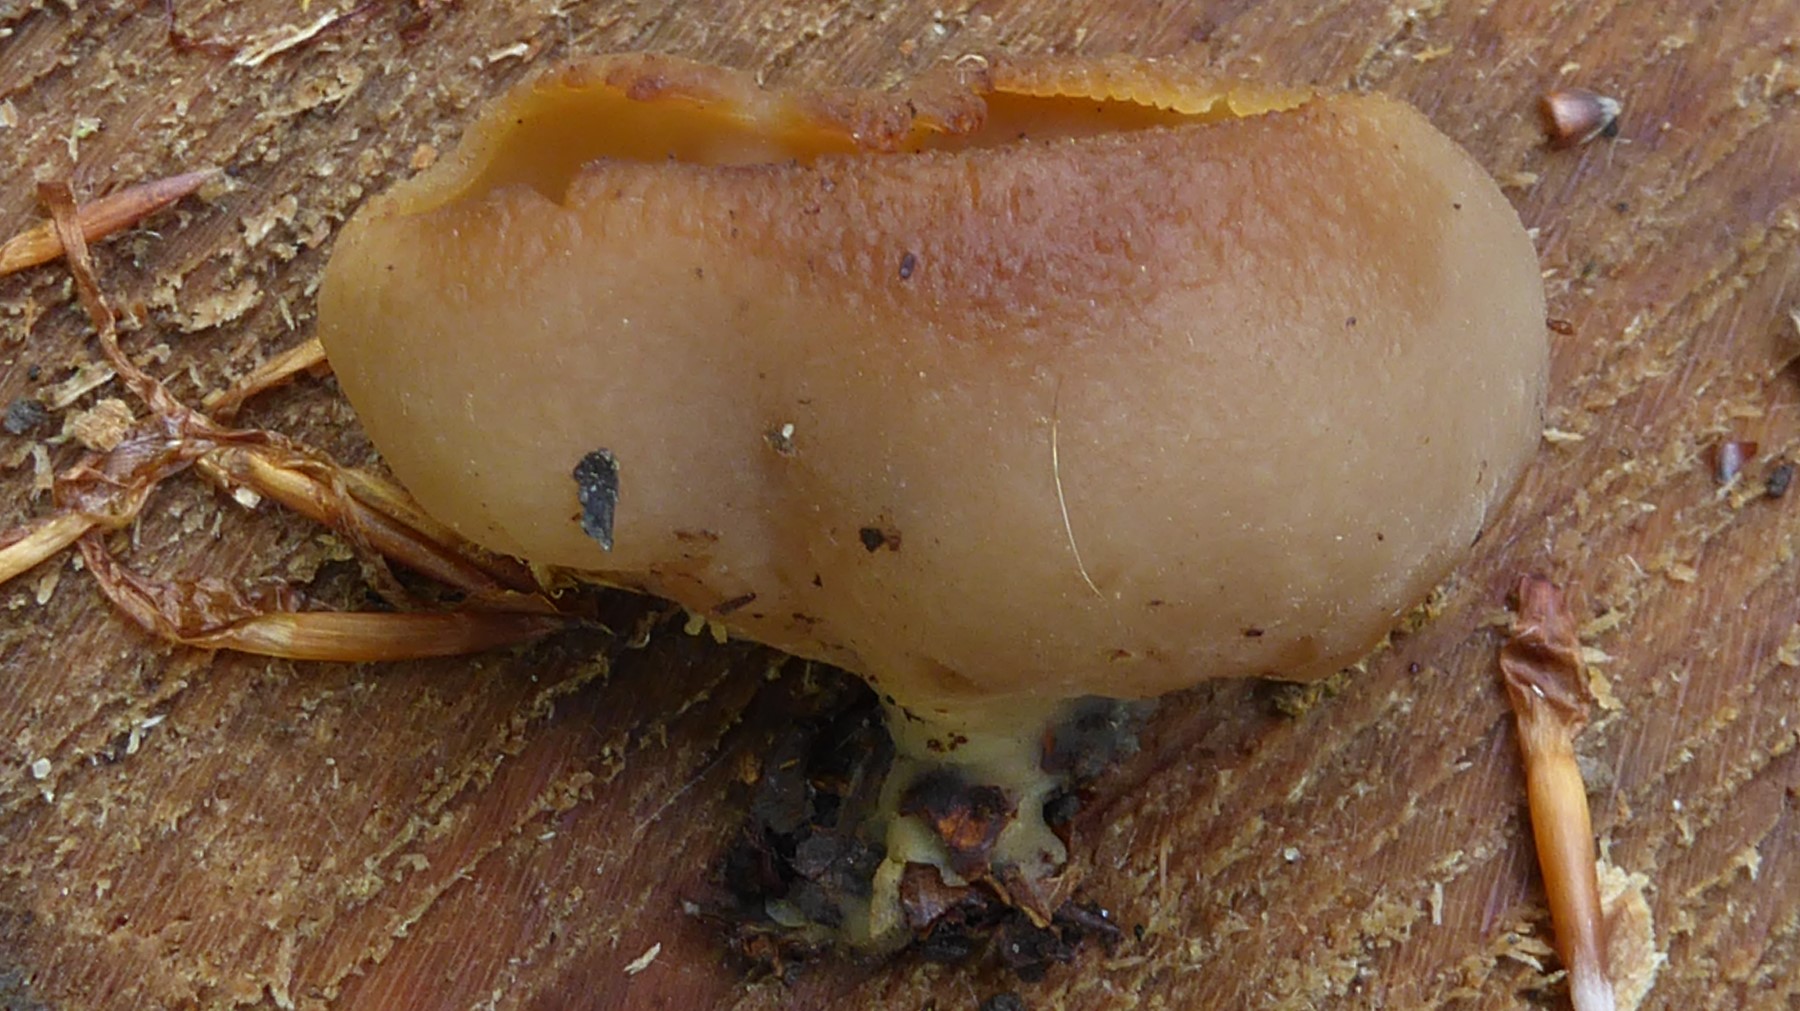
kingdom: Fungi
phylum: Ascomycota
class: Pezizomycetes
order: Pezizales
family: Pezizaceae
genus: Peziza
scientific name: Peziza
